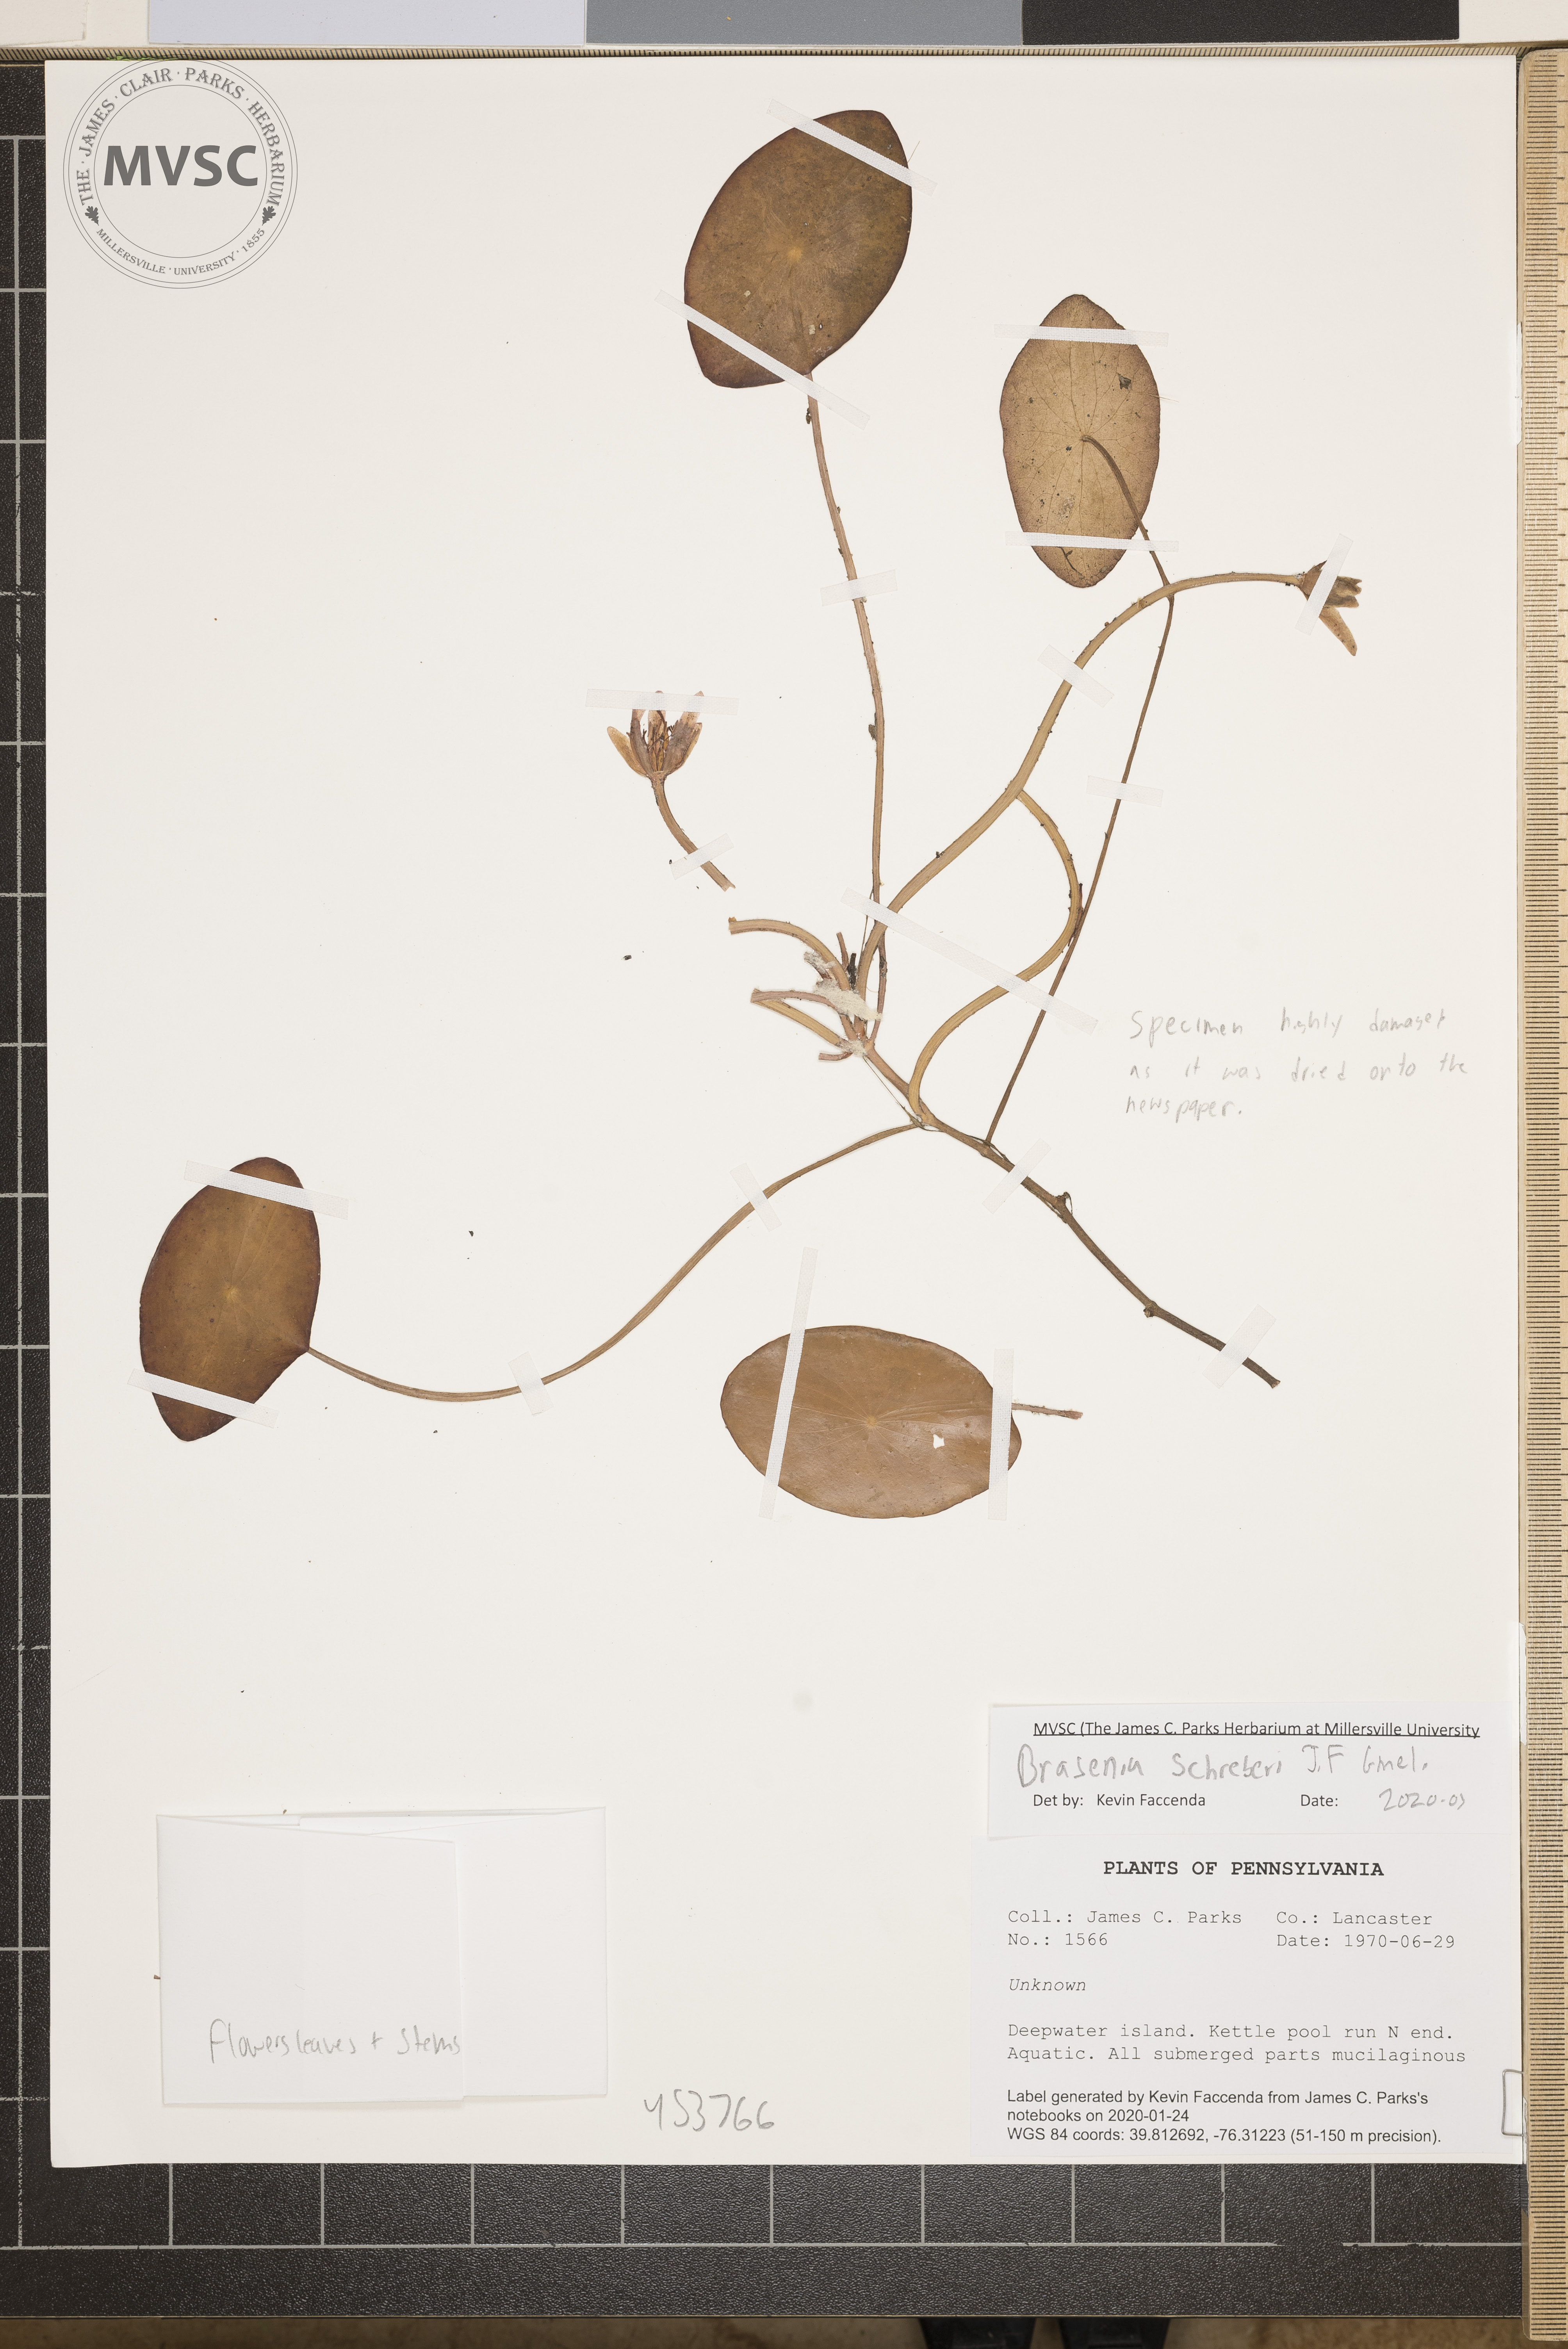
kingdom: Plantae
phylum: Tracheophyta
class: Magnoliopsida
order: Nymphaeales
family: Cabombaceae
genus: Brasenia
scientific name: Brasenia schreberi
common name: Water-shield
